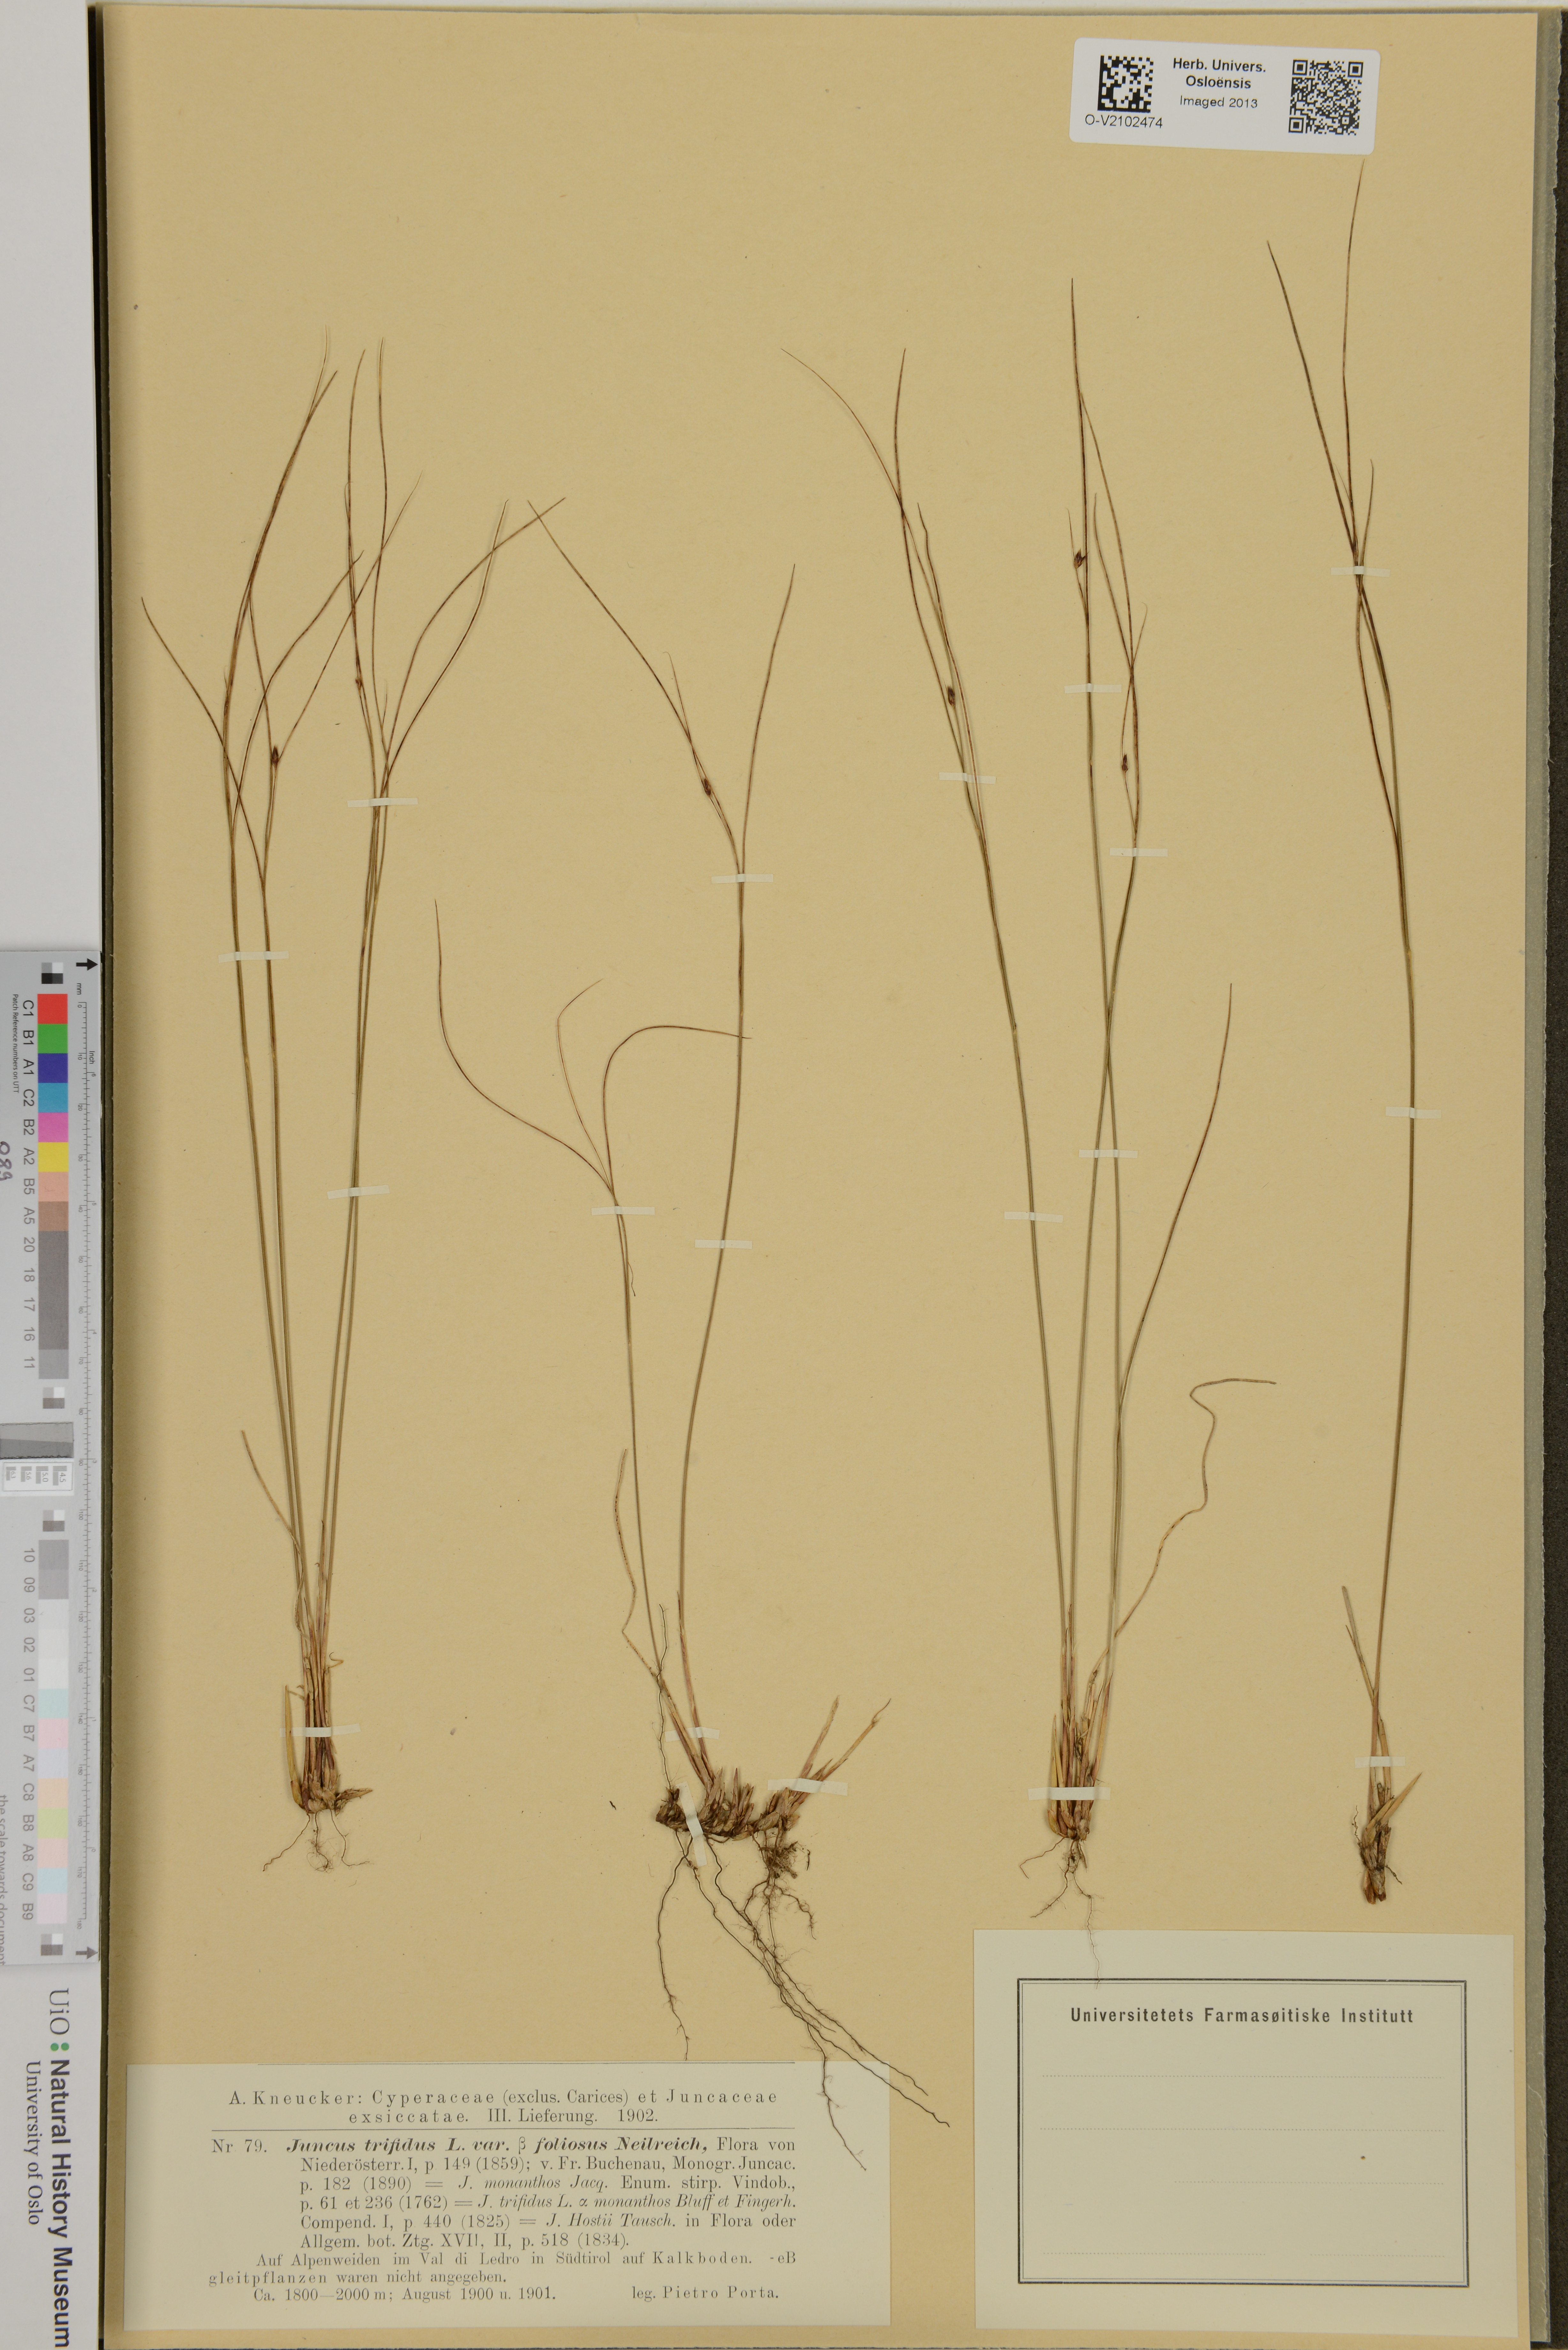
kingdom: Plantae
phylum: Tracheophyta
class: Liliopsida
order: Poales
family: Juncaceae
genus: Oreojuncus
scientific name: Oreojuncus trifidus
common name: Highland rush
